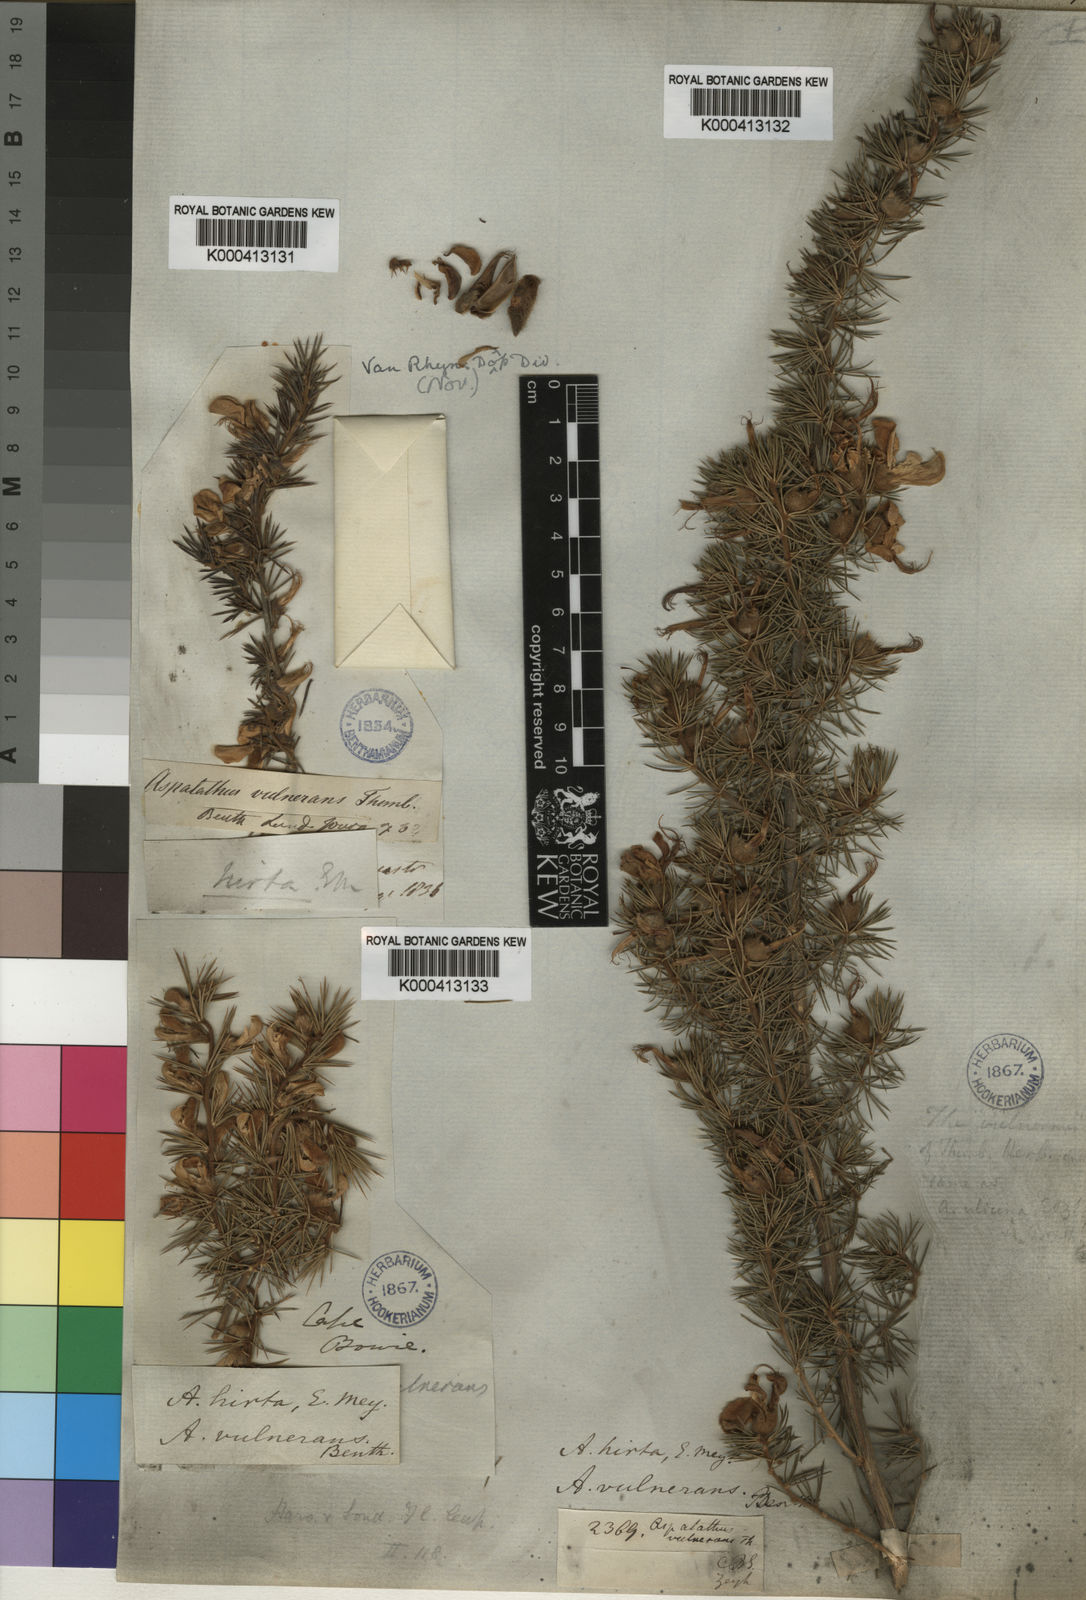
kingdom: Plantae
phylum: Tracheophyta
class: Magnoliopsida
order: Fabales
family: Fabaceae
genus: Aspalathus
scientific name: Aspalathus hirta
